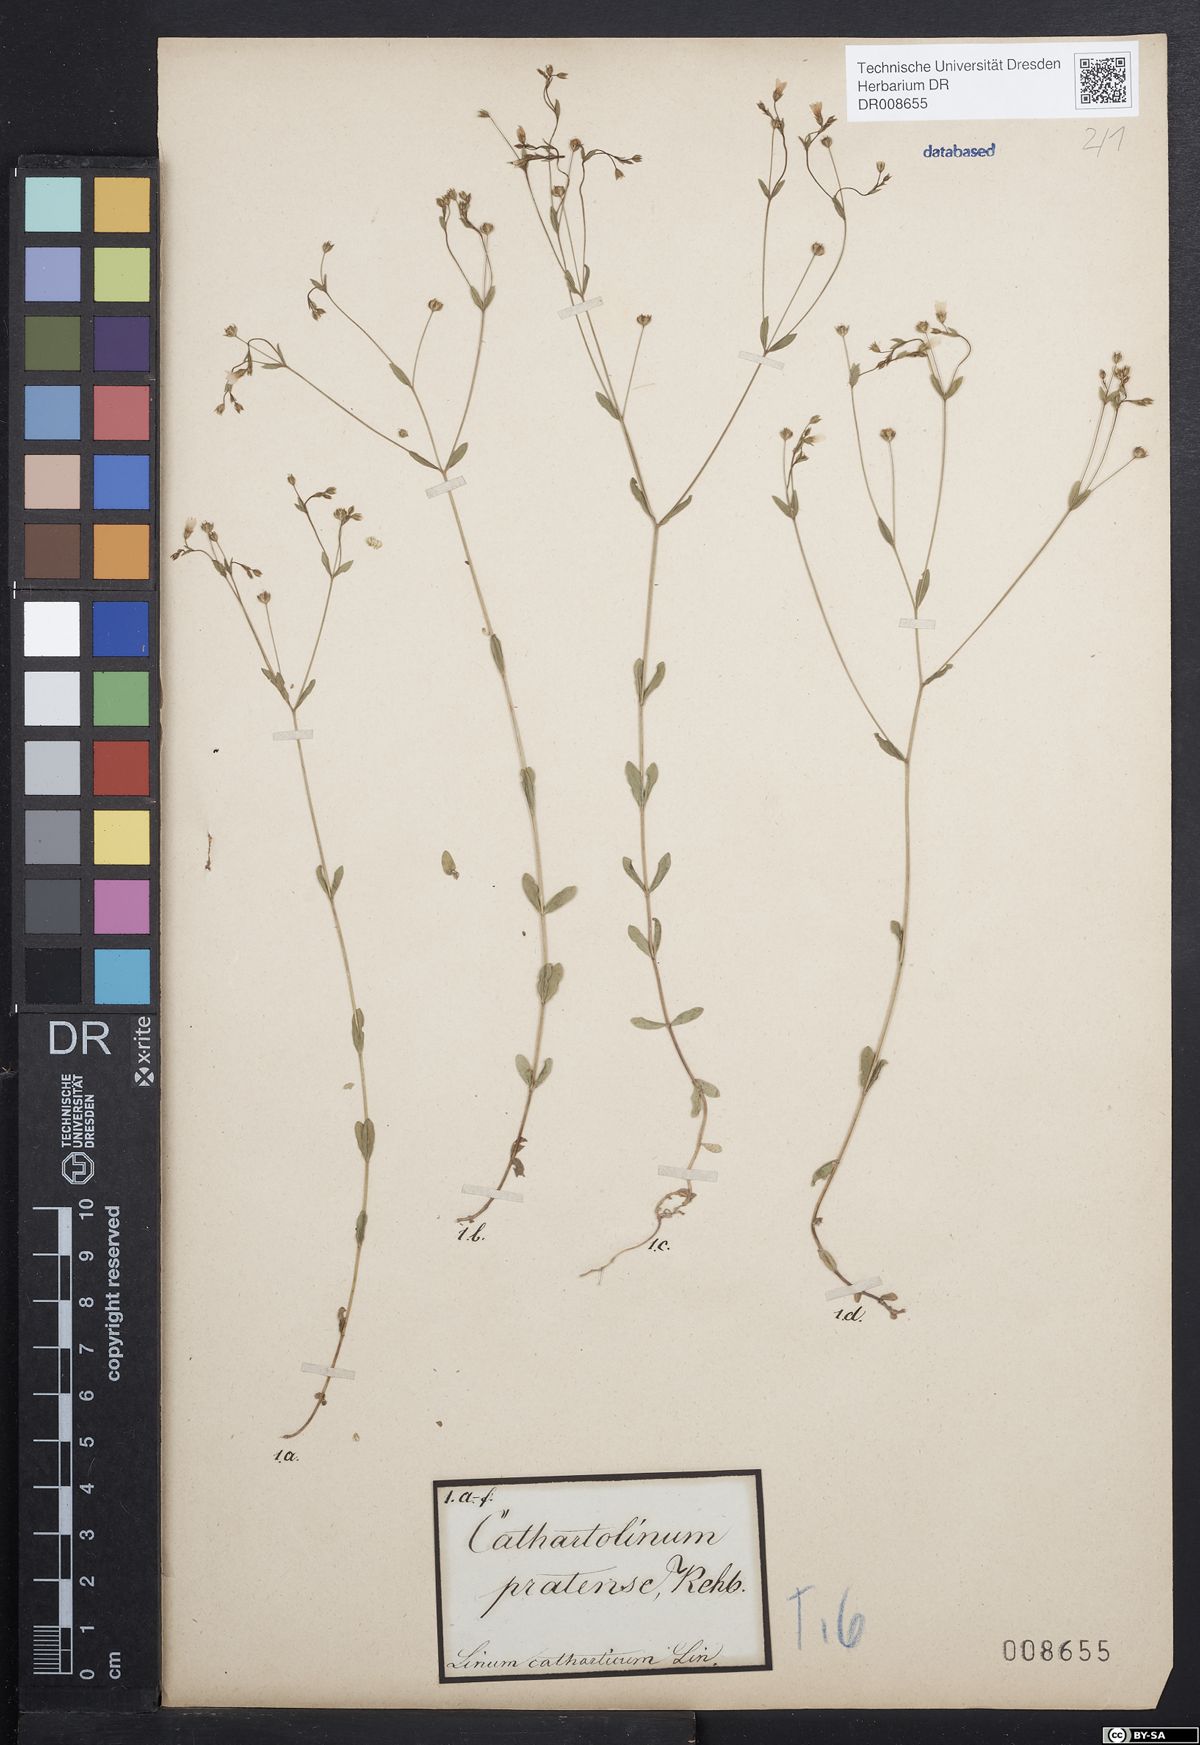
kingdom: Plantae
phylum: Tracheophyta
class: Magnoliopsida
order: Malpighiales
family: Linaceae
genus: Linum
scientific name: Linum catharticum
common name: Fairy flax
